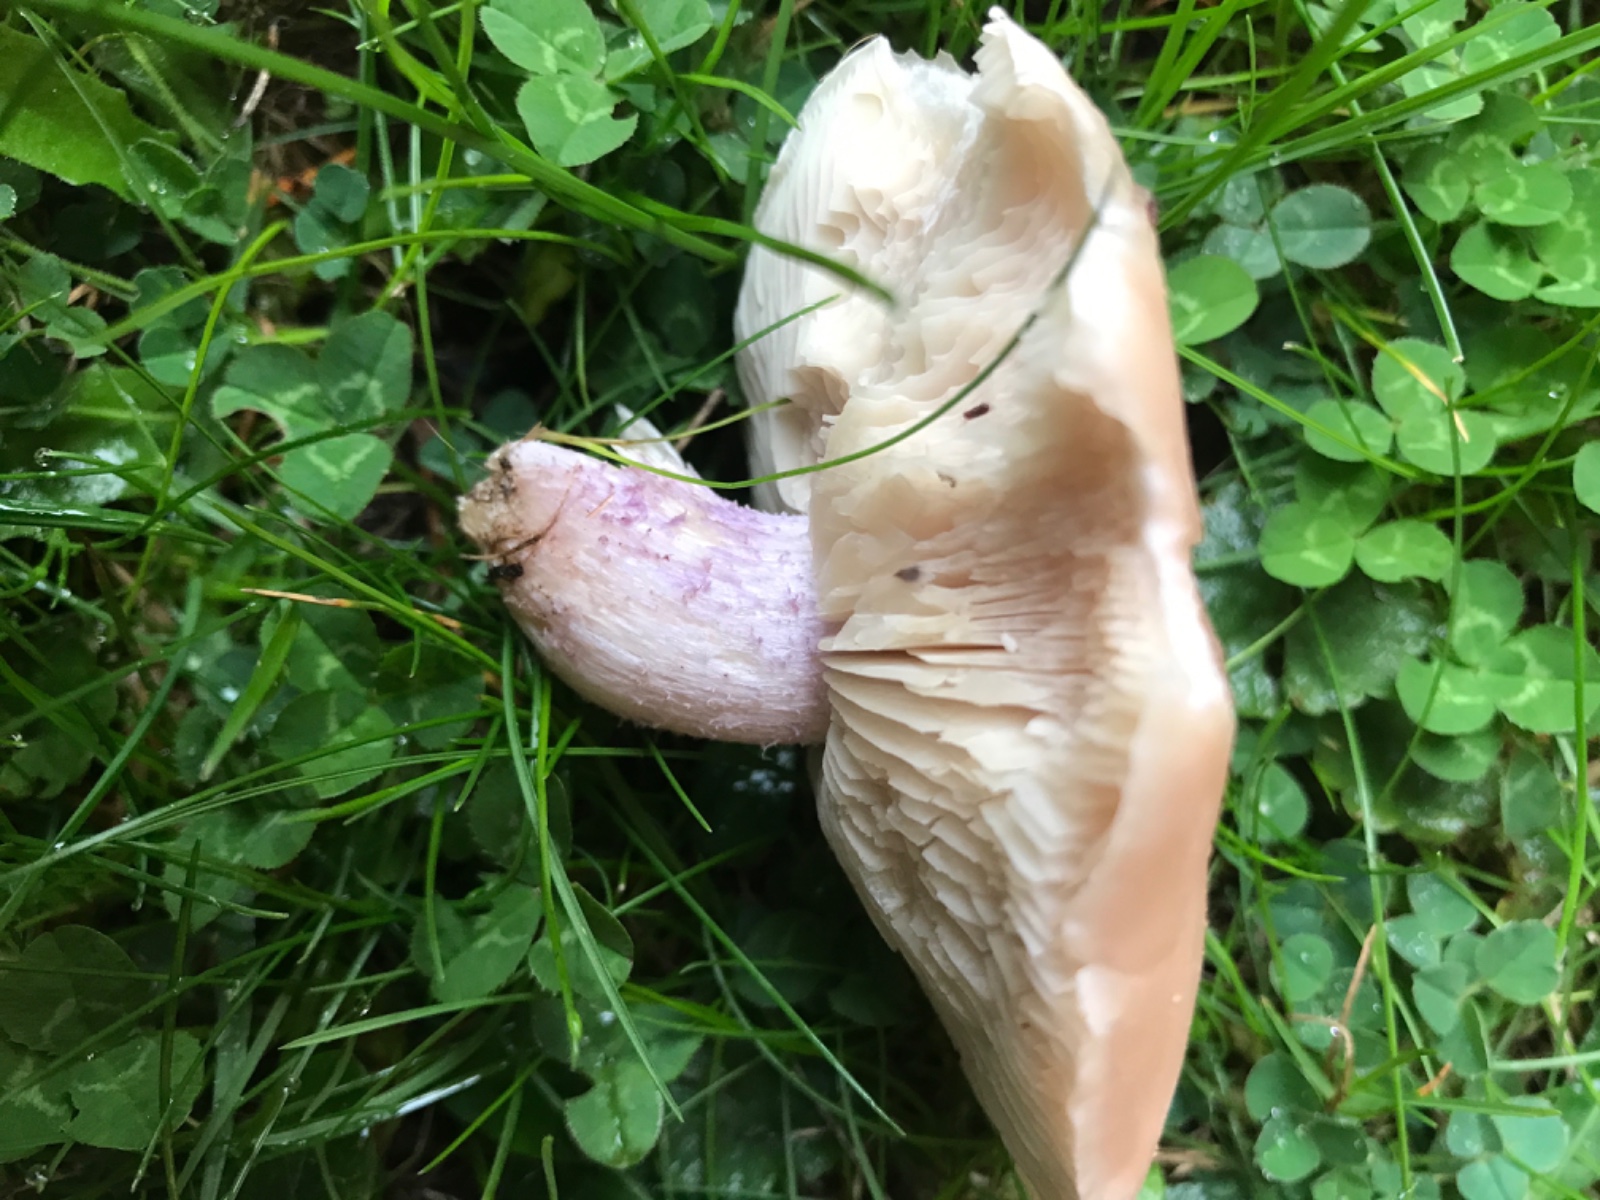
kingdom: Fungi
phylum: Basidiomycota
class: Agaricomycetes
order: Agaricales
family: Tricholomataceae
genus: Lepista
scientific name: Lepista personata
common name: bleg hekseringshat
